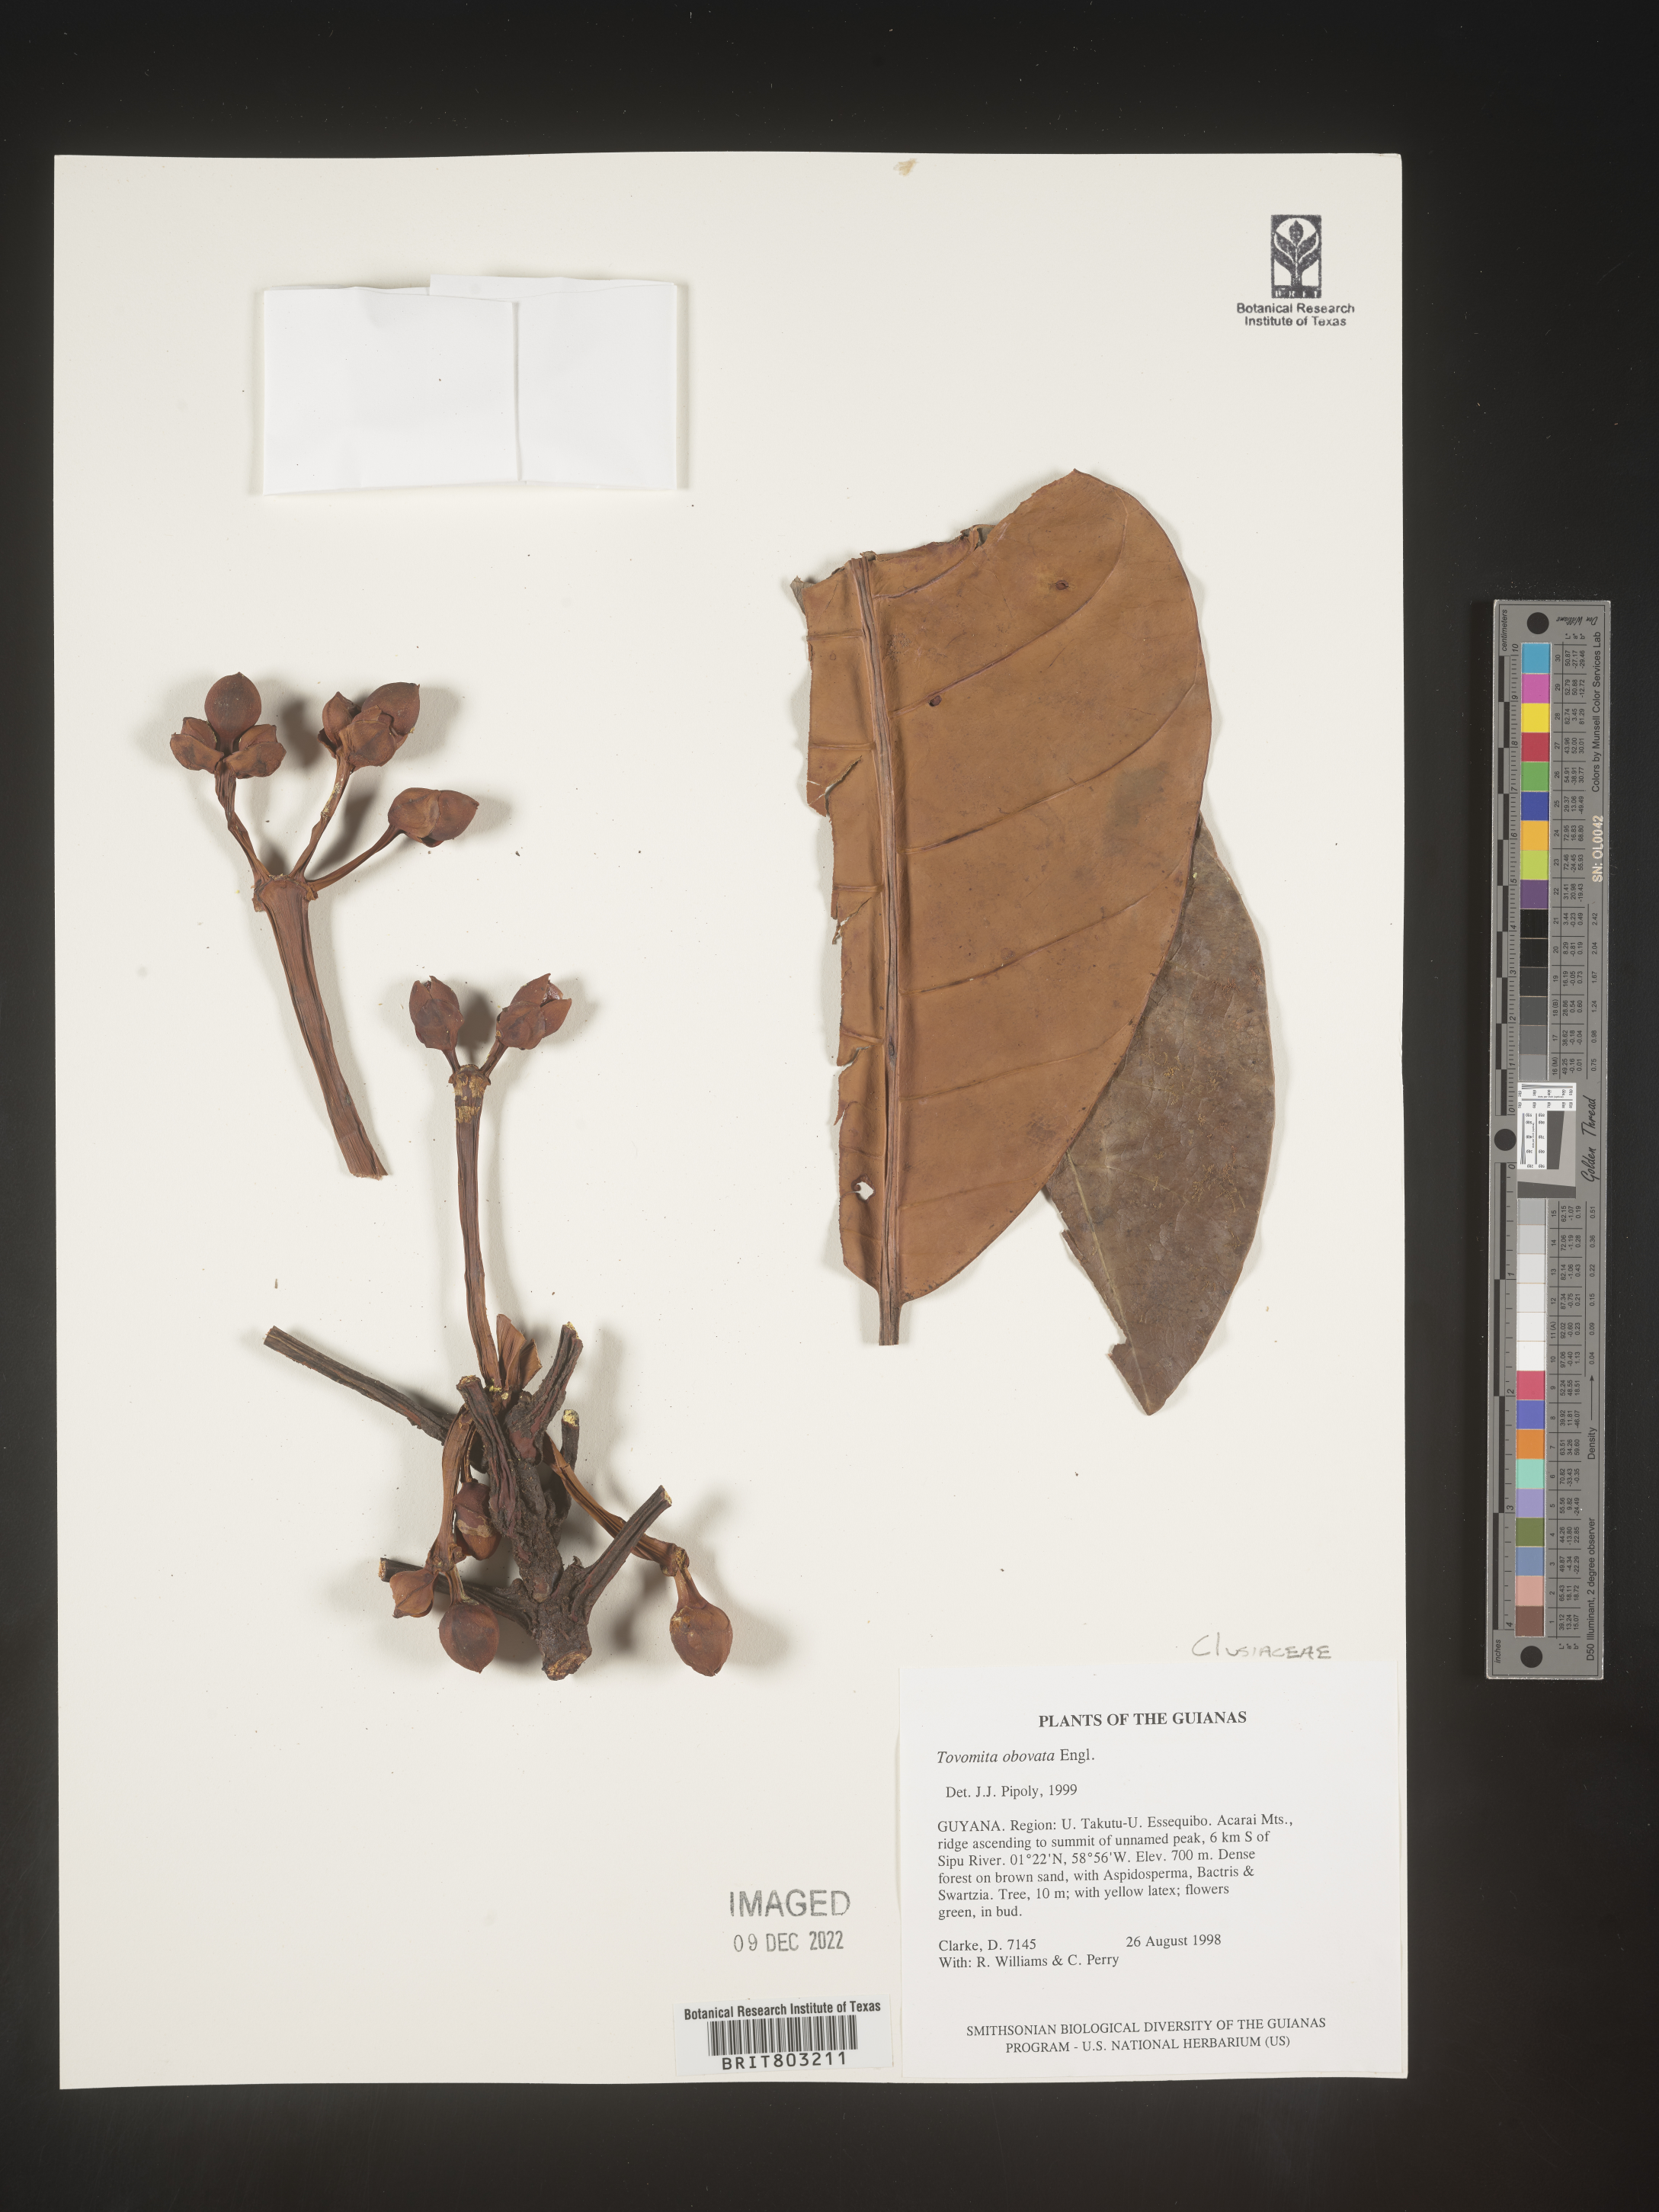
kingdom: Plantae
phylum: Tracheophyta
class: Magnoliopsida
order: Malpighiales
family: Clusiaceae
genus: Tovomita
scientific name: Tovomita
